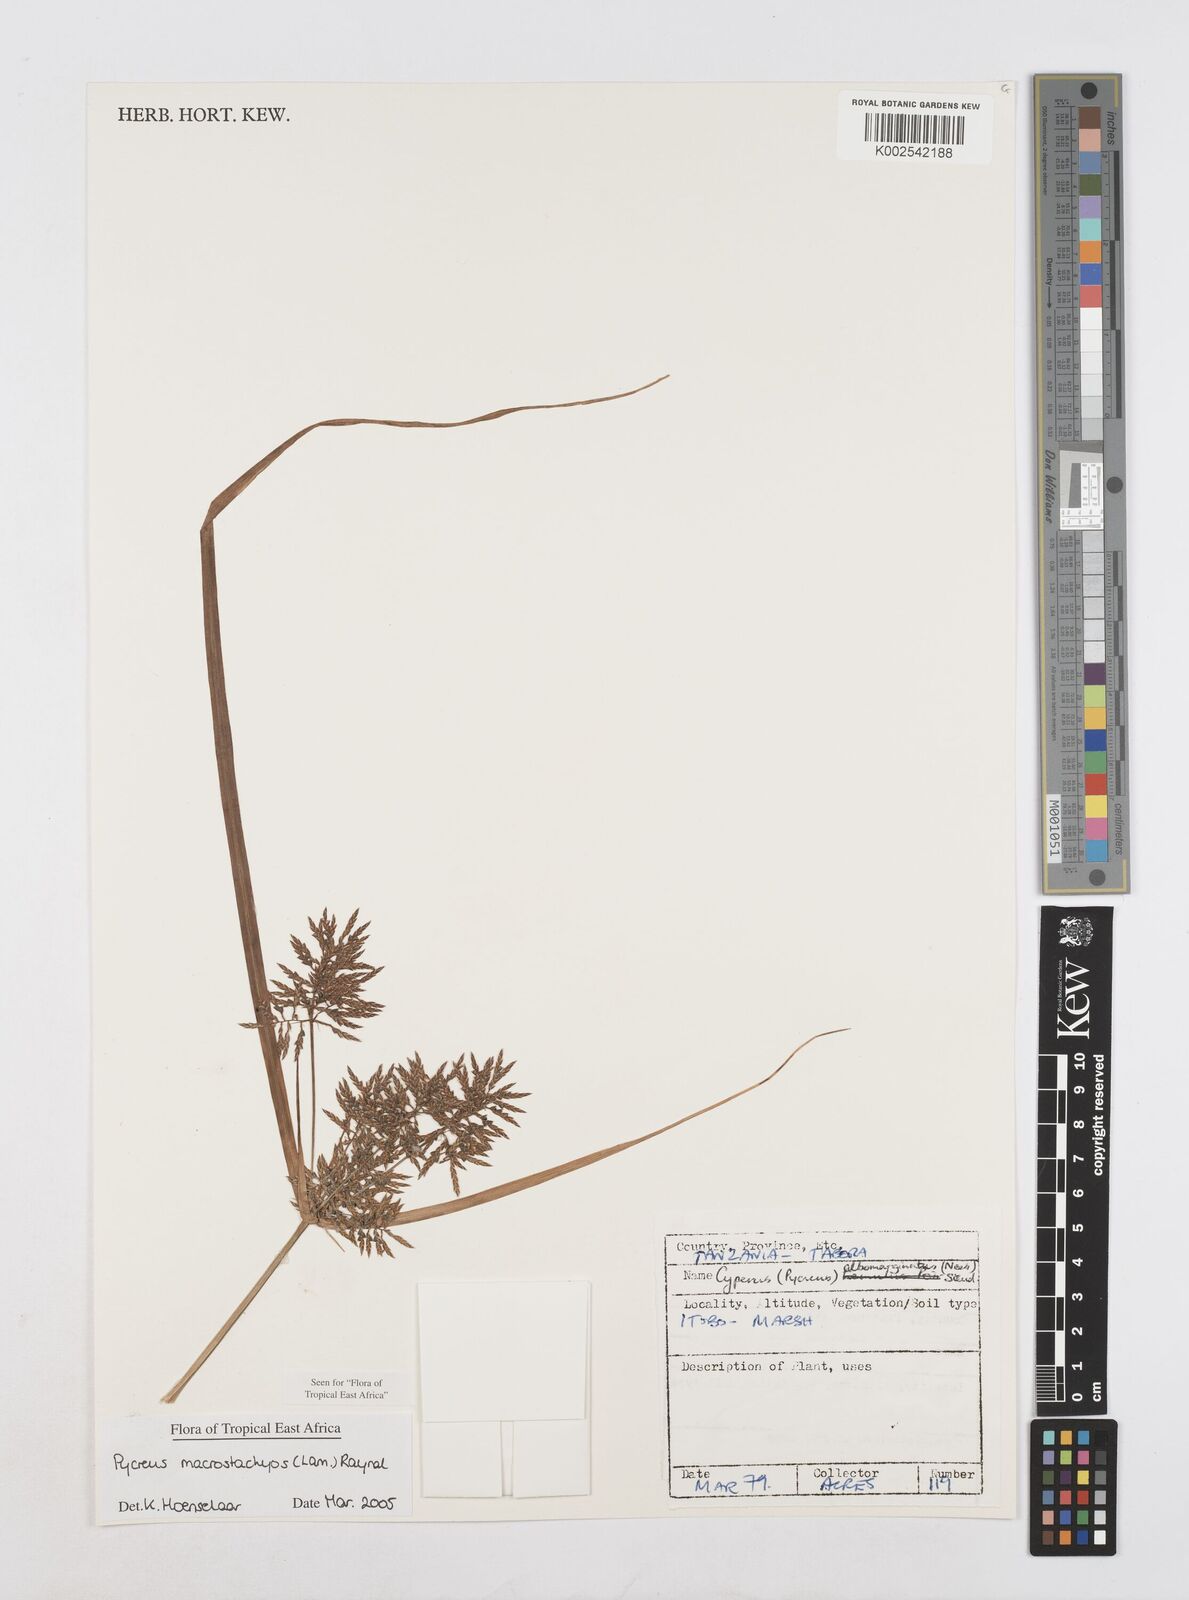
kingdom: Plantae
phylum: Tracheophyta
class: Liliopsida
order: Poales
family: Cyperaceae
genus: Cyperus
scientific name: Cyperus macrostachyos
